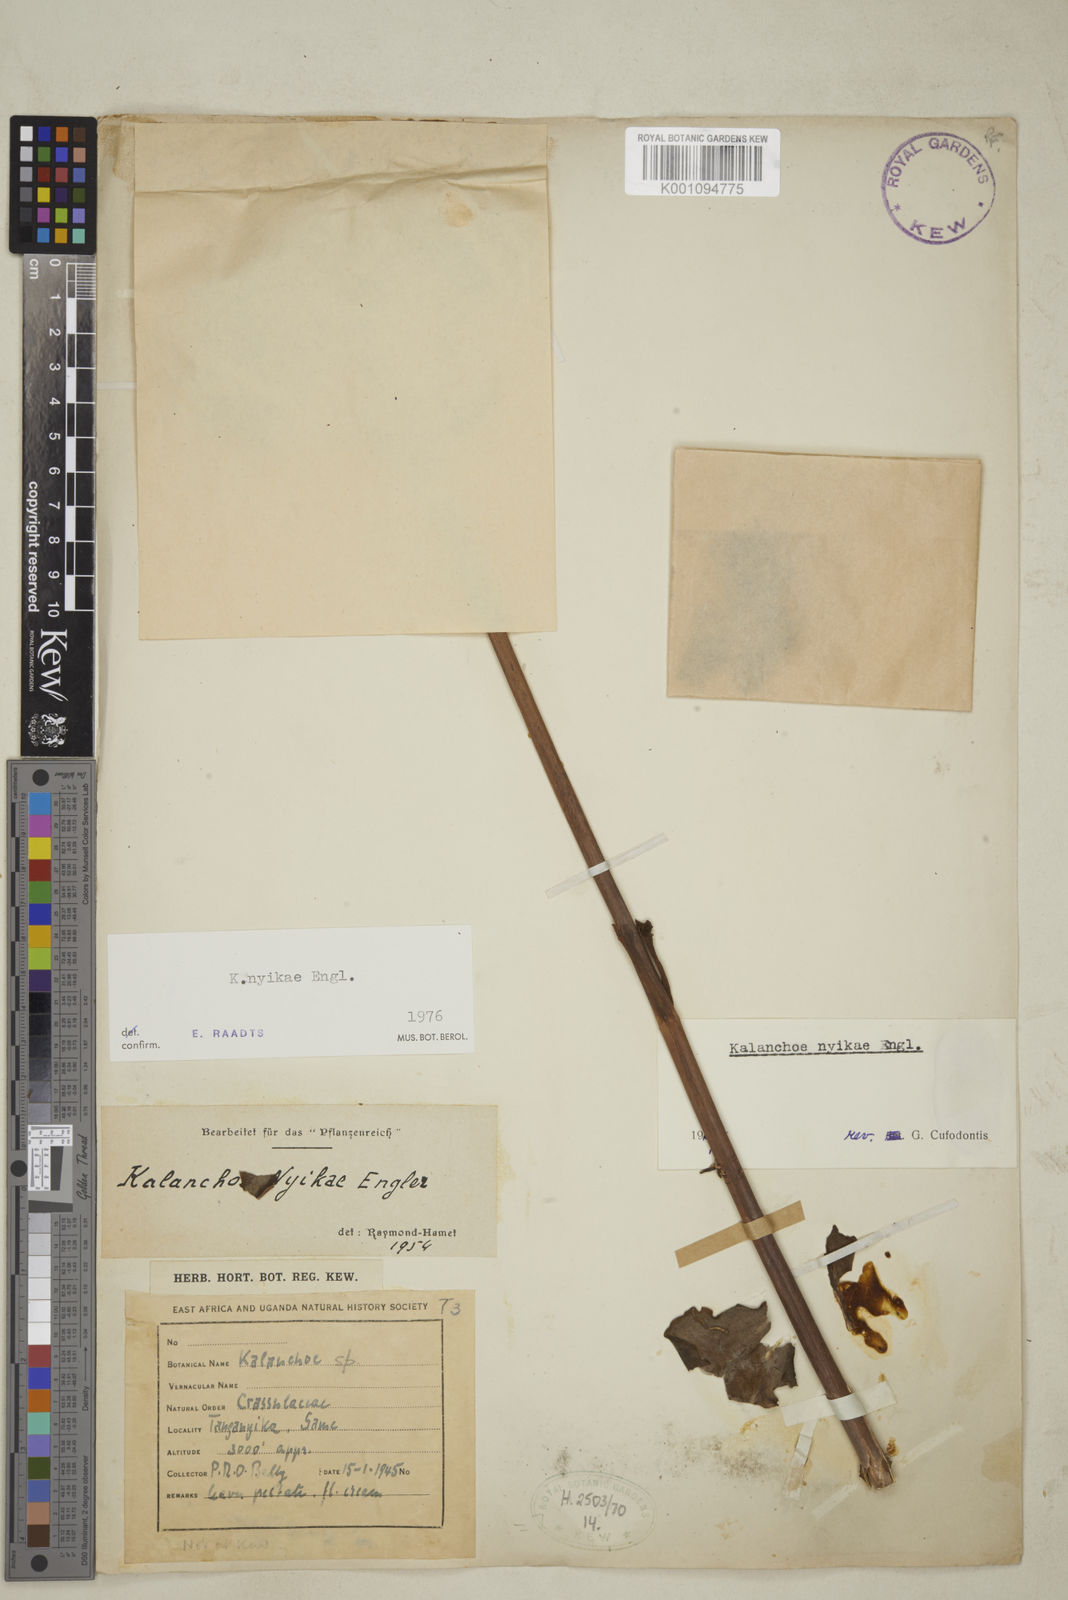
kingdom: Plantae
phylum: Tracheophyta
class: Magnoliopsida
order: Saxifragales
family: Crassulaceae
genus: Kalanchoe
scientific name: Kalanchoe nyikae
